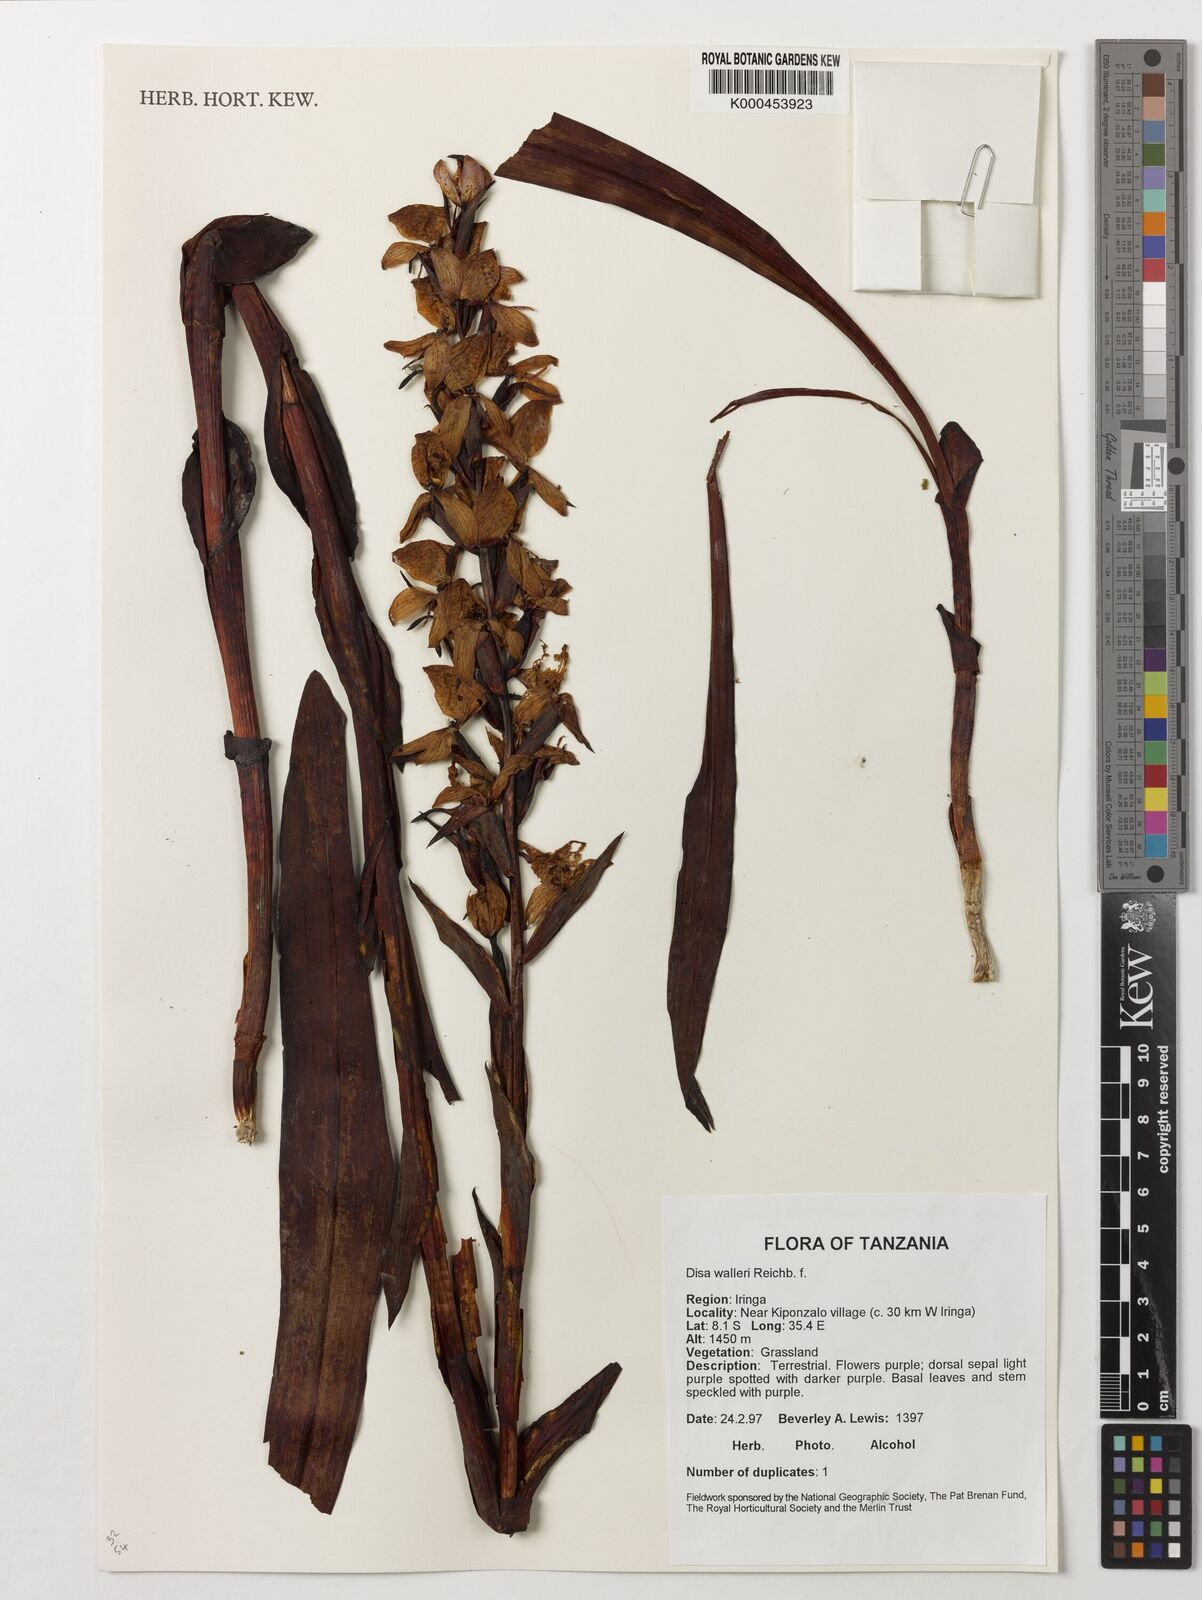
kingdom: Plantae
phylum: Tracheophyta
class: Liliopsida
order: Asparagales
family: Orchidaceae
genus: Disa
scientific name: Disa walleri
